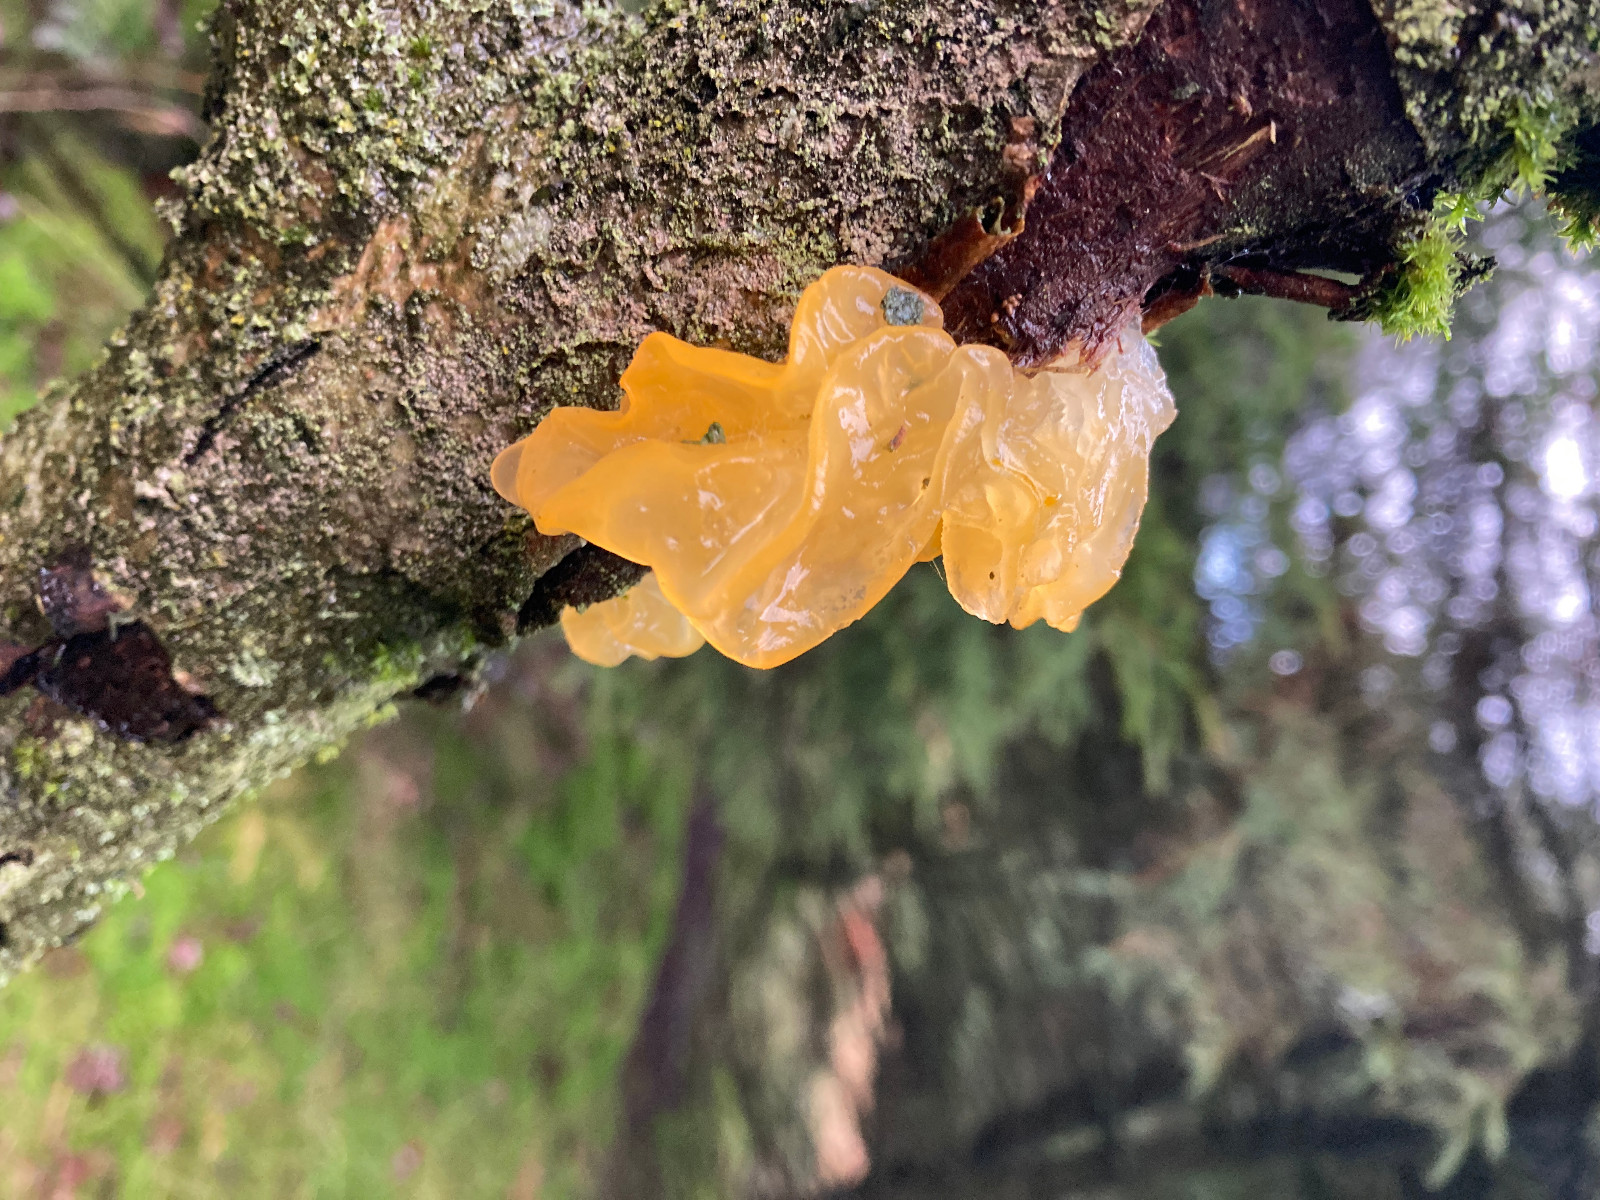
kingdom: Fungi
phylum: Basidiomycota
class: Tremellomycetes
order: Tremellales
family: Tremellaceae
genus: Tremella
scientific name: Tremella mesenterica
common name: gul bævresvamp
